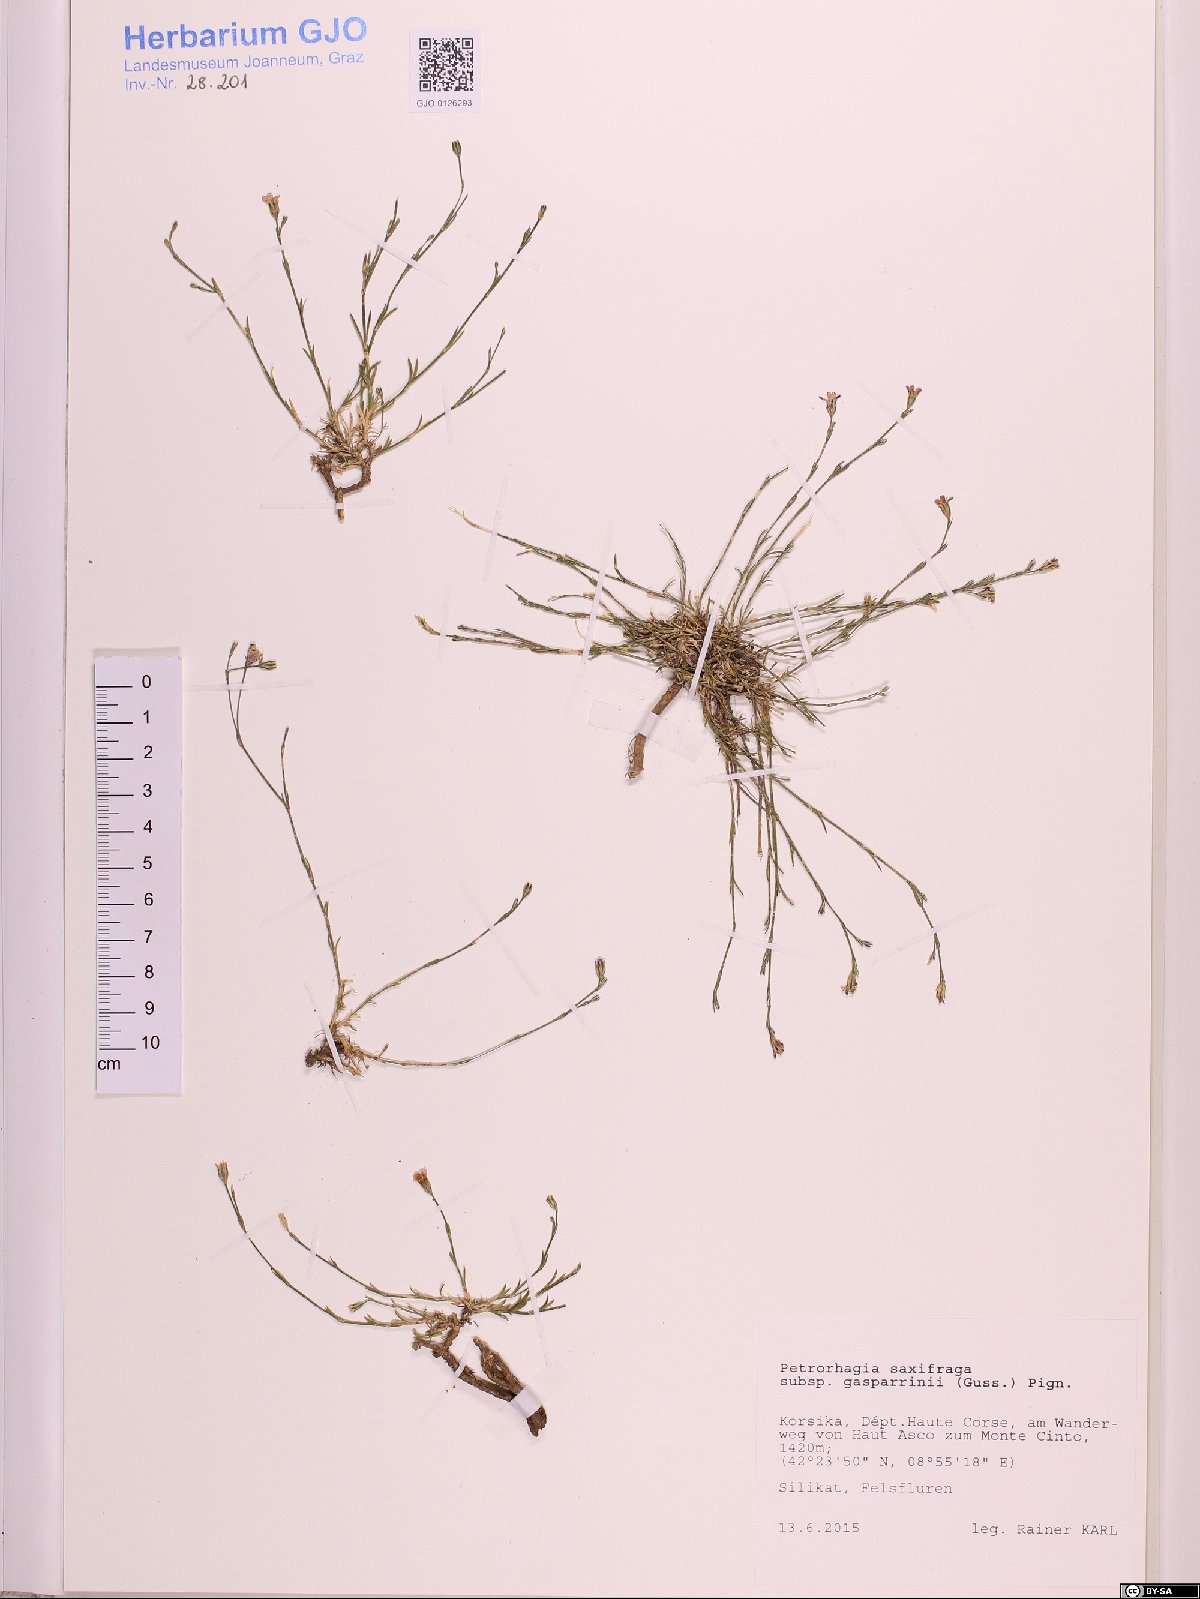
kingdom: Plantae
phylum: Tracheophyta
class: Magnoliopsida
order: Caryophyllales
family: Caryophyllaceae
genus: Petrorhagia
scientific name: Petrorhagia saxifraga
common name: Tunicflower
